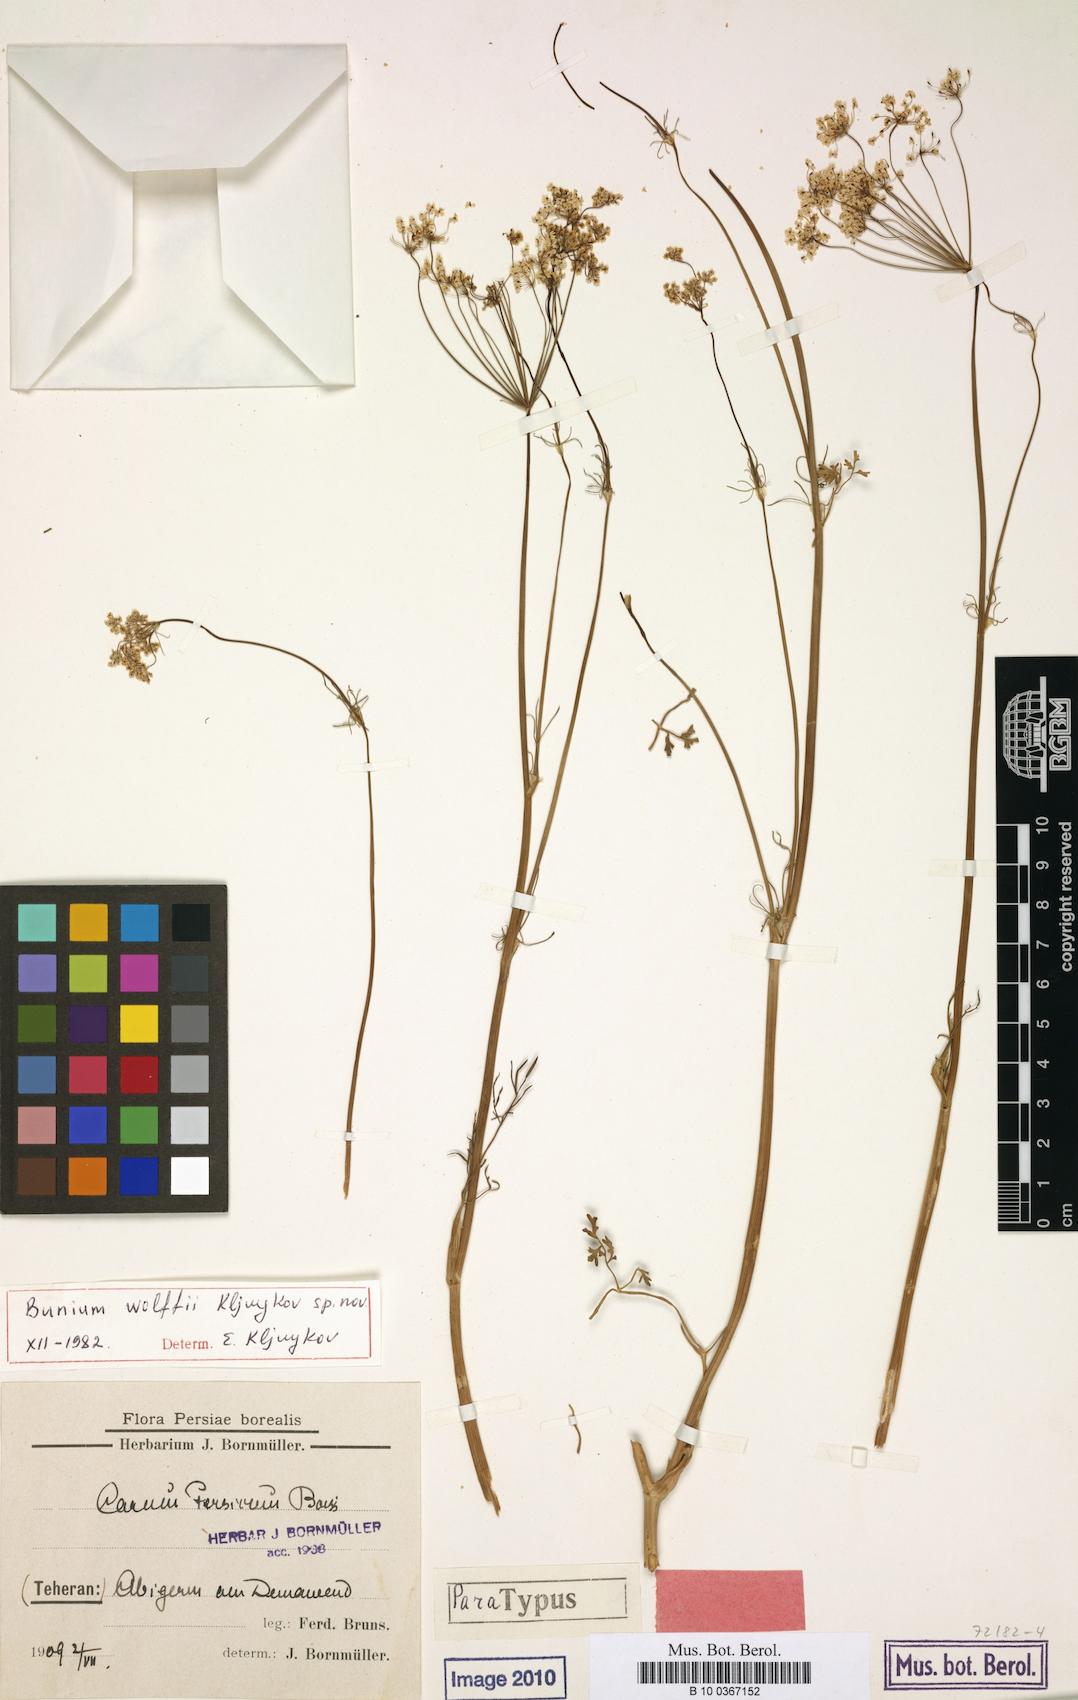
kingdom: Plantae
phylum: Tracheophyta
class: Magnoliopsida
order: Apiales
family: Apiaceae
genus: Elwendia
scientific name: Elwendia wolffii
